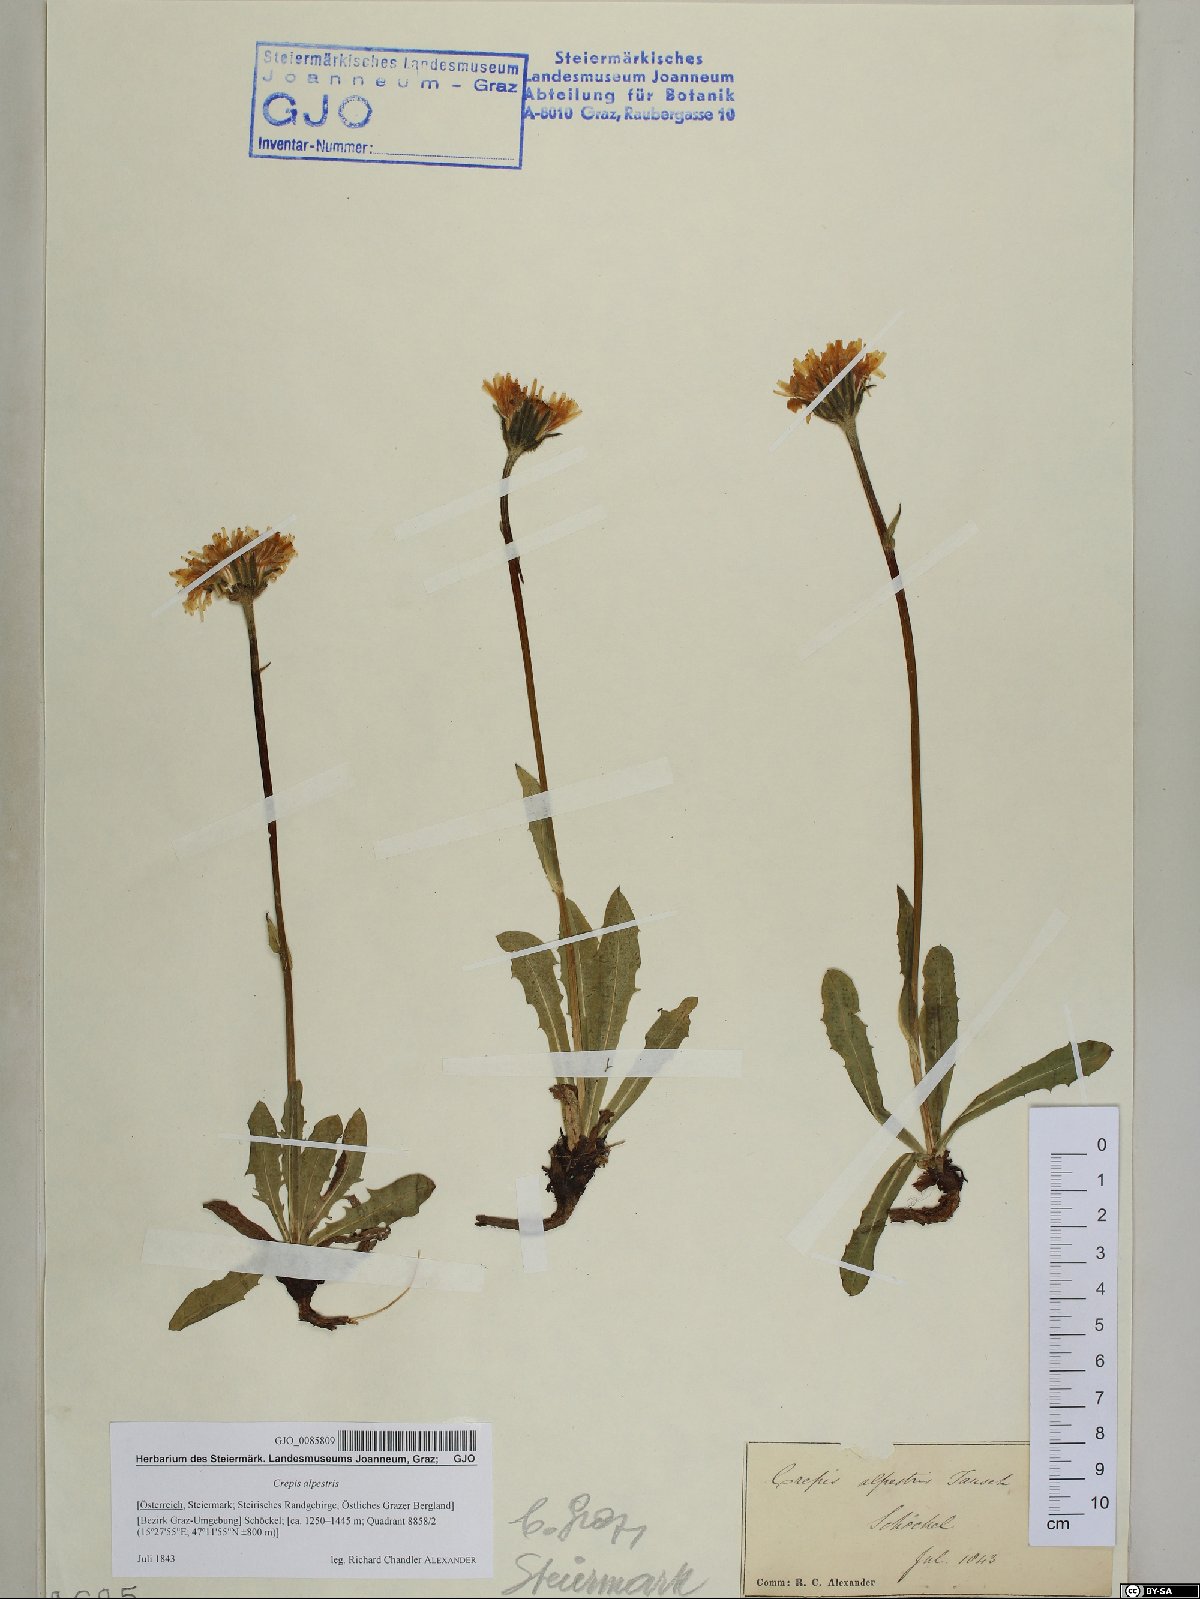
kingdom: Plantae
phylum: Tracheophyta
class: Magnoliopsida
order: Asterales
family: Asteraceae
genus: Crepis
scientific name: Crepis alpestris
